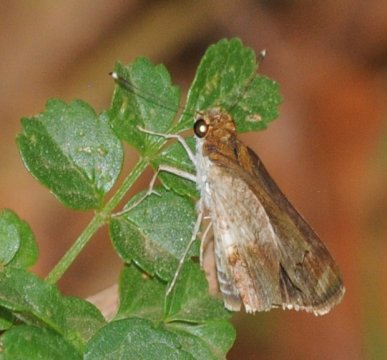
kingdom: Animalia
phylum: Arthropoda
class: Insecta
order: Lepidoptera
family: Hesperiidae
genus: Acleros
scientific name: Acleros mackenii
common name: Macken's Dart
